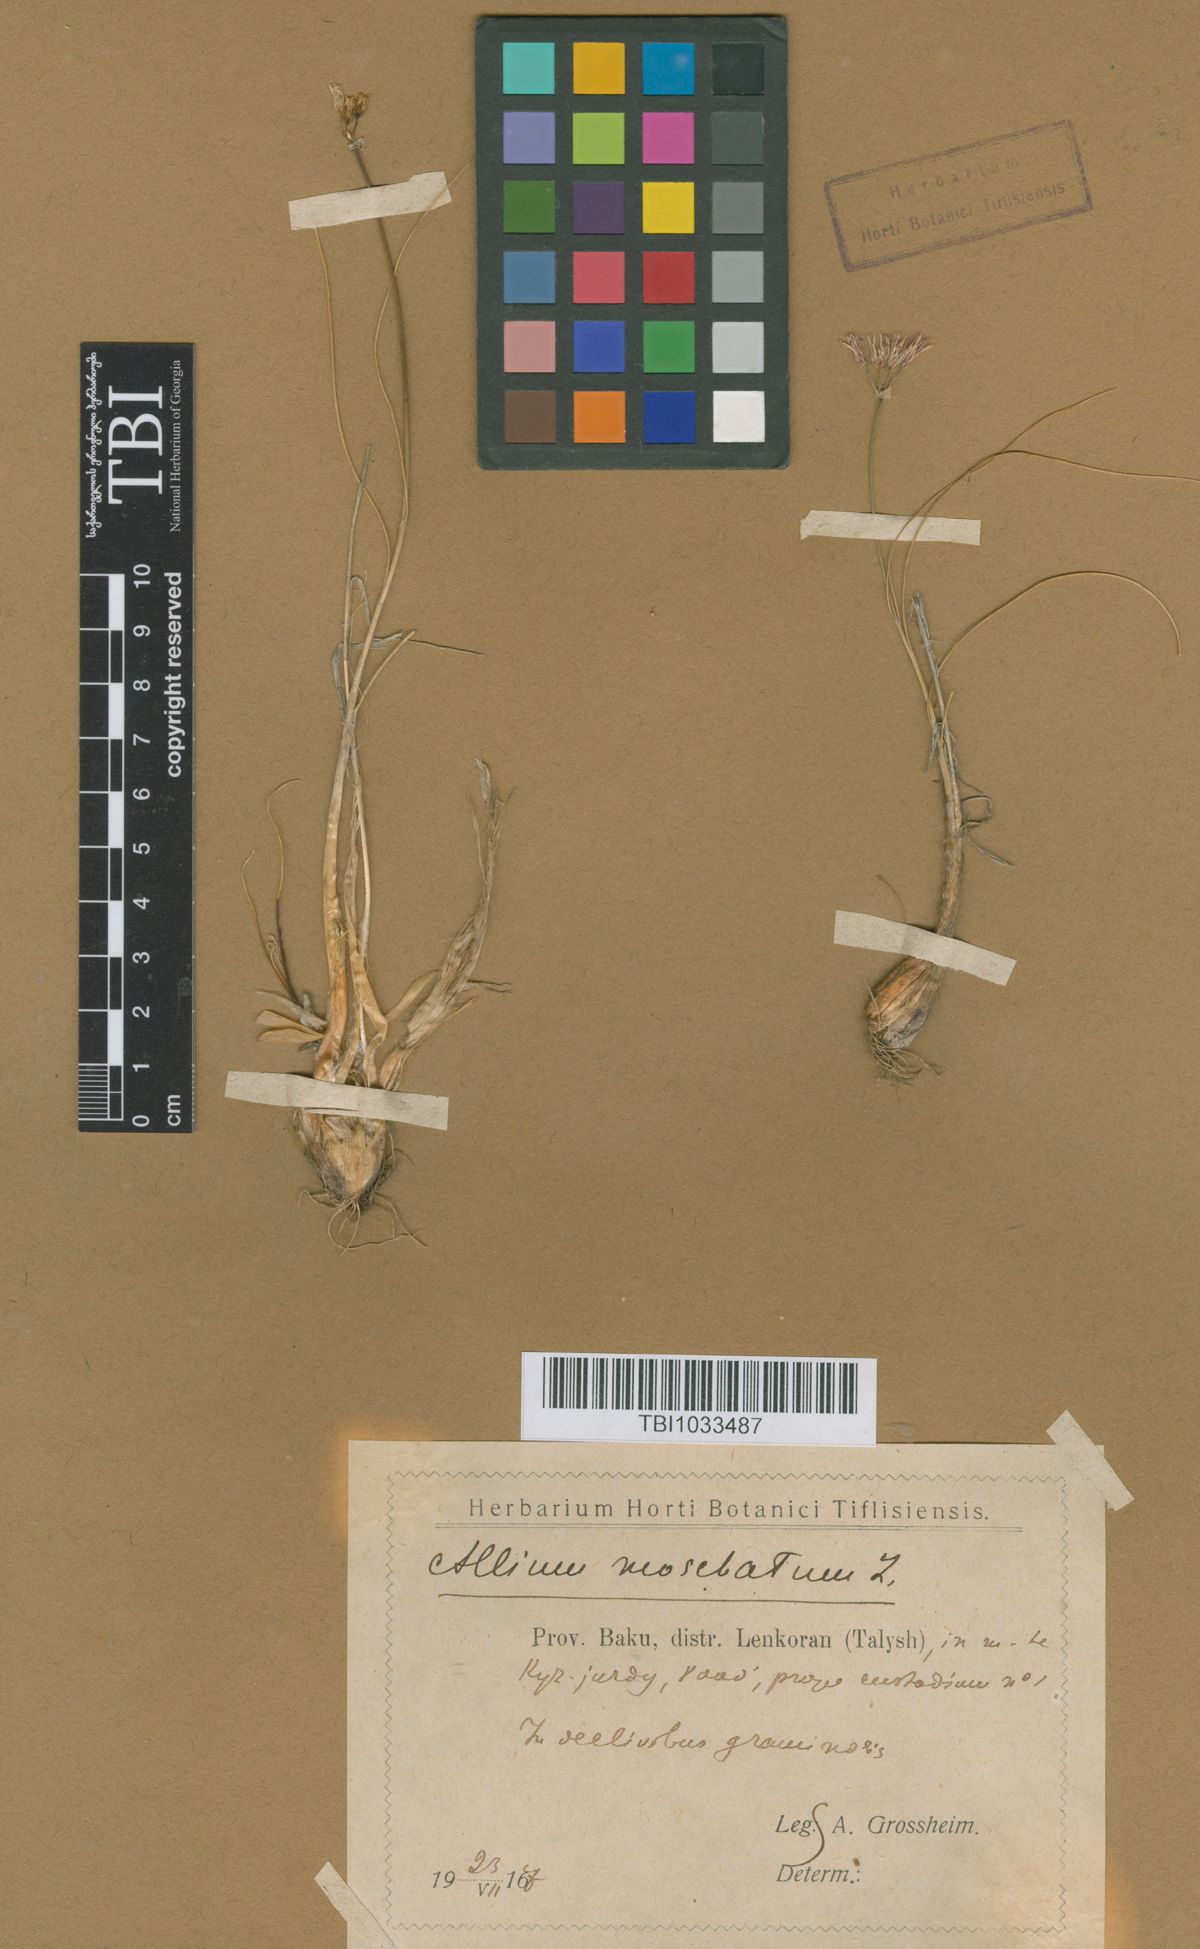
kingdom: Plantae
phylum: Tracheophyta
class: Liliopsida
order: Asparagales
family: Amaryllidaceae
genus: Allium
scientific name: Allium moschatum
